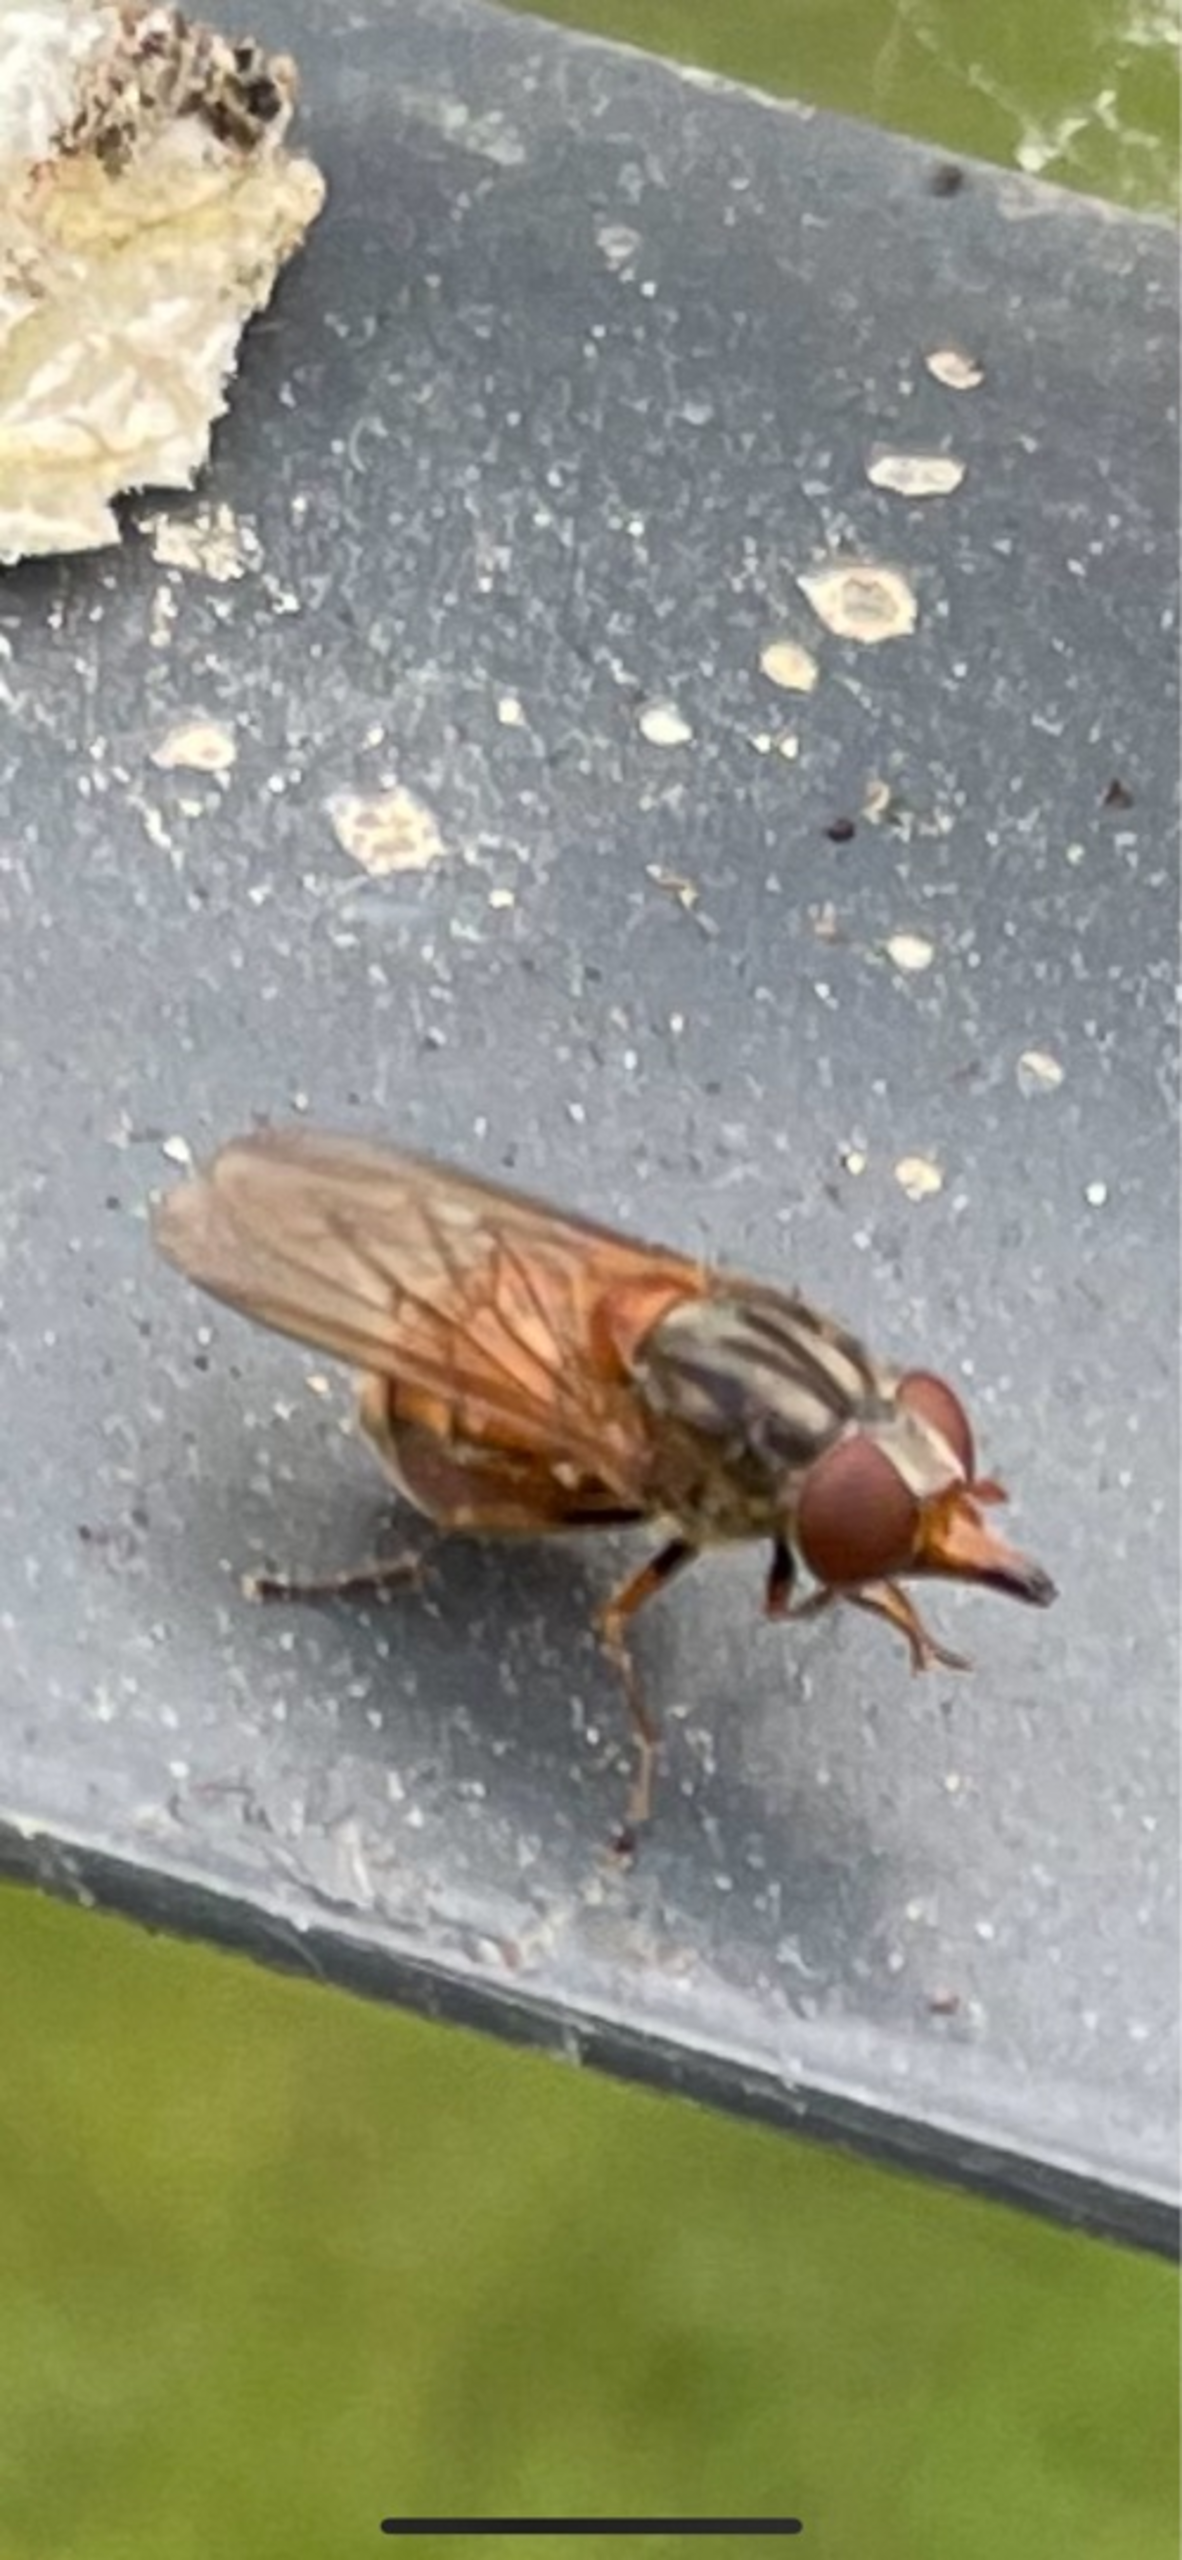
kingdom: Animalia
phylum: Arthropoda
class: Insecta
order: Diptera
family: Syrphidae
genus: Rhingia
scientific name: Rhingia campestris
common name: Mark-snabelsvirreflue
